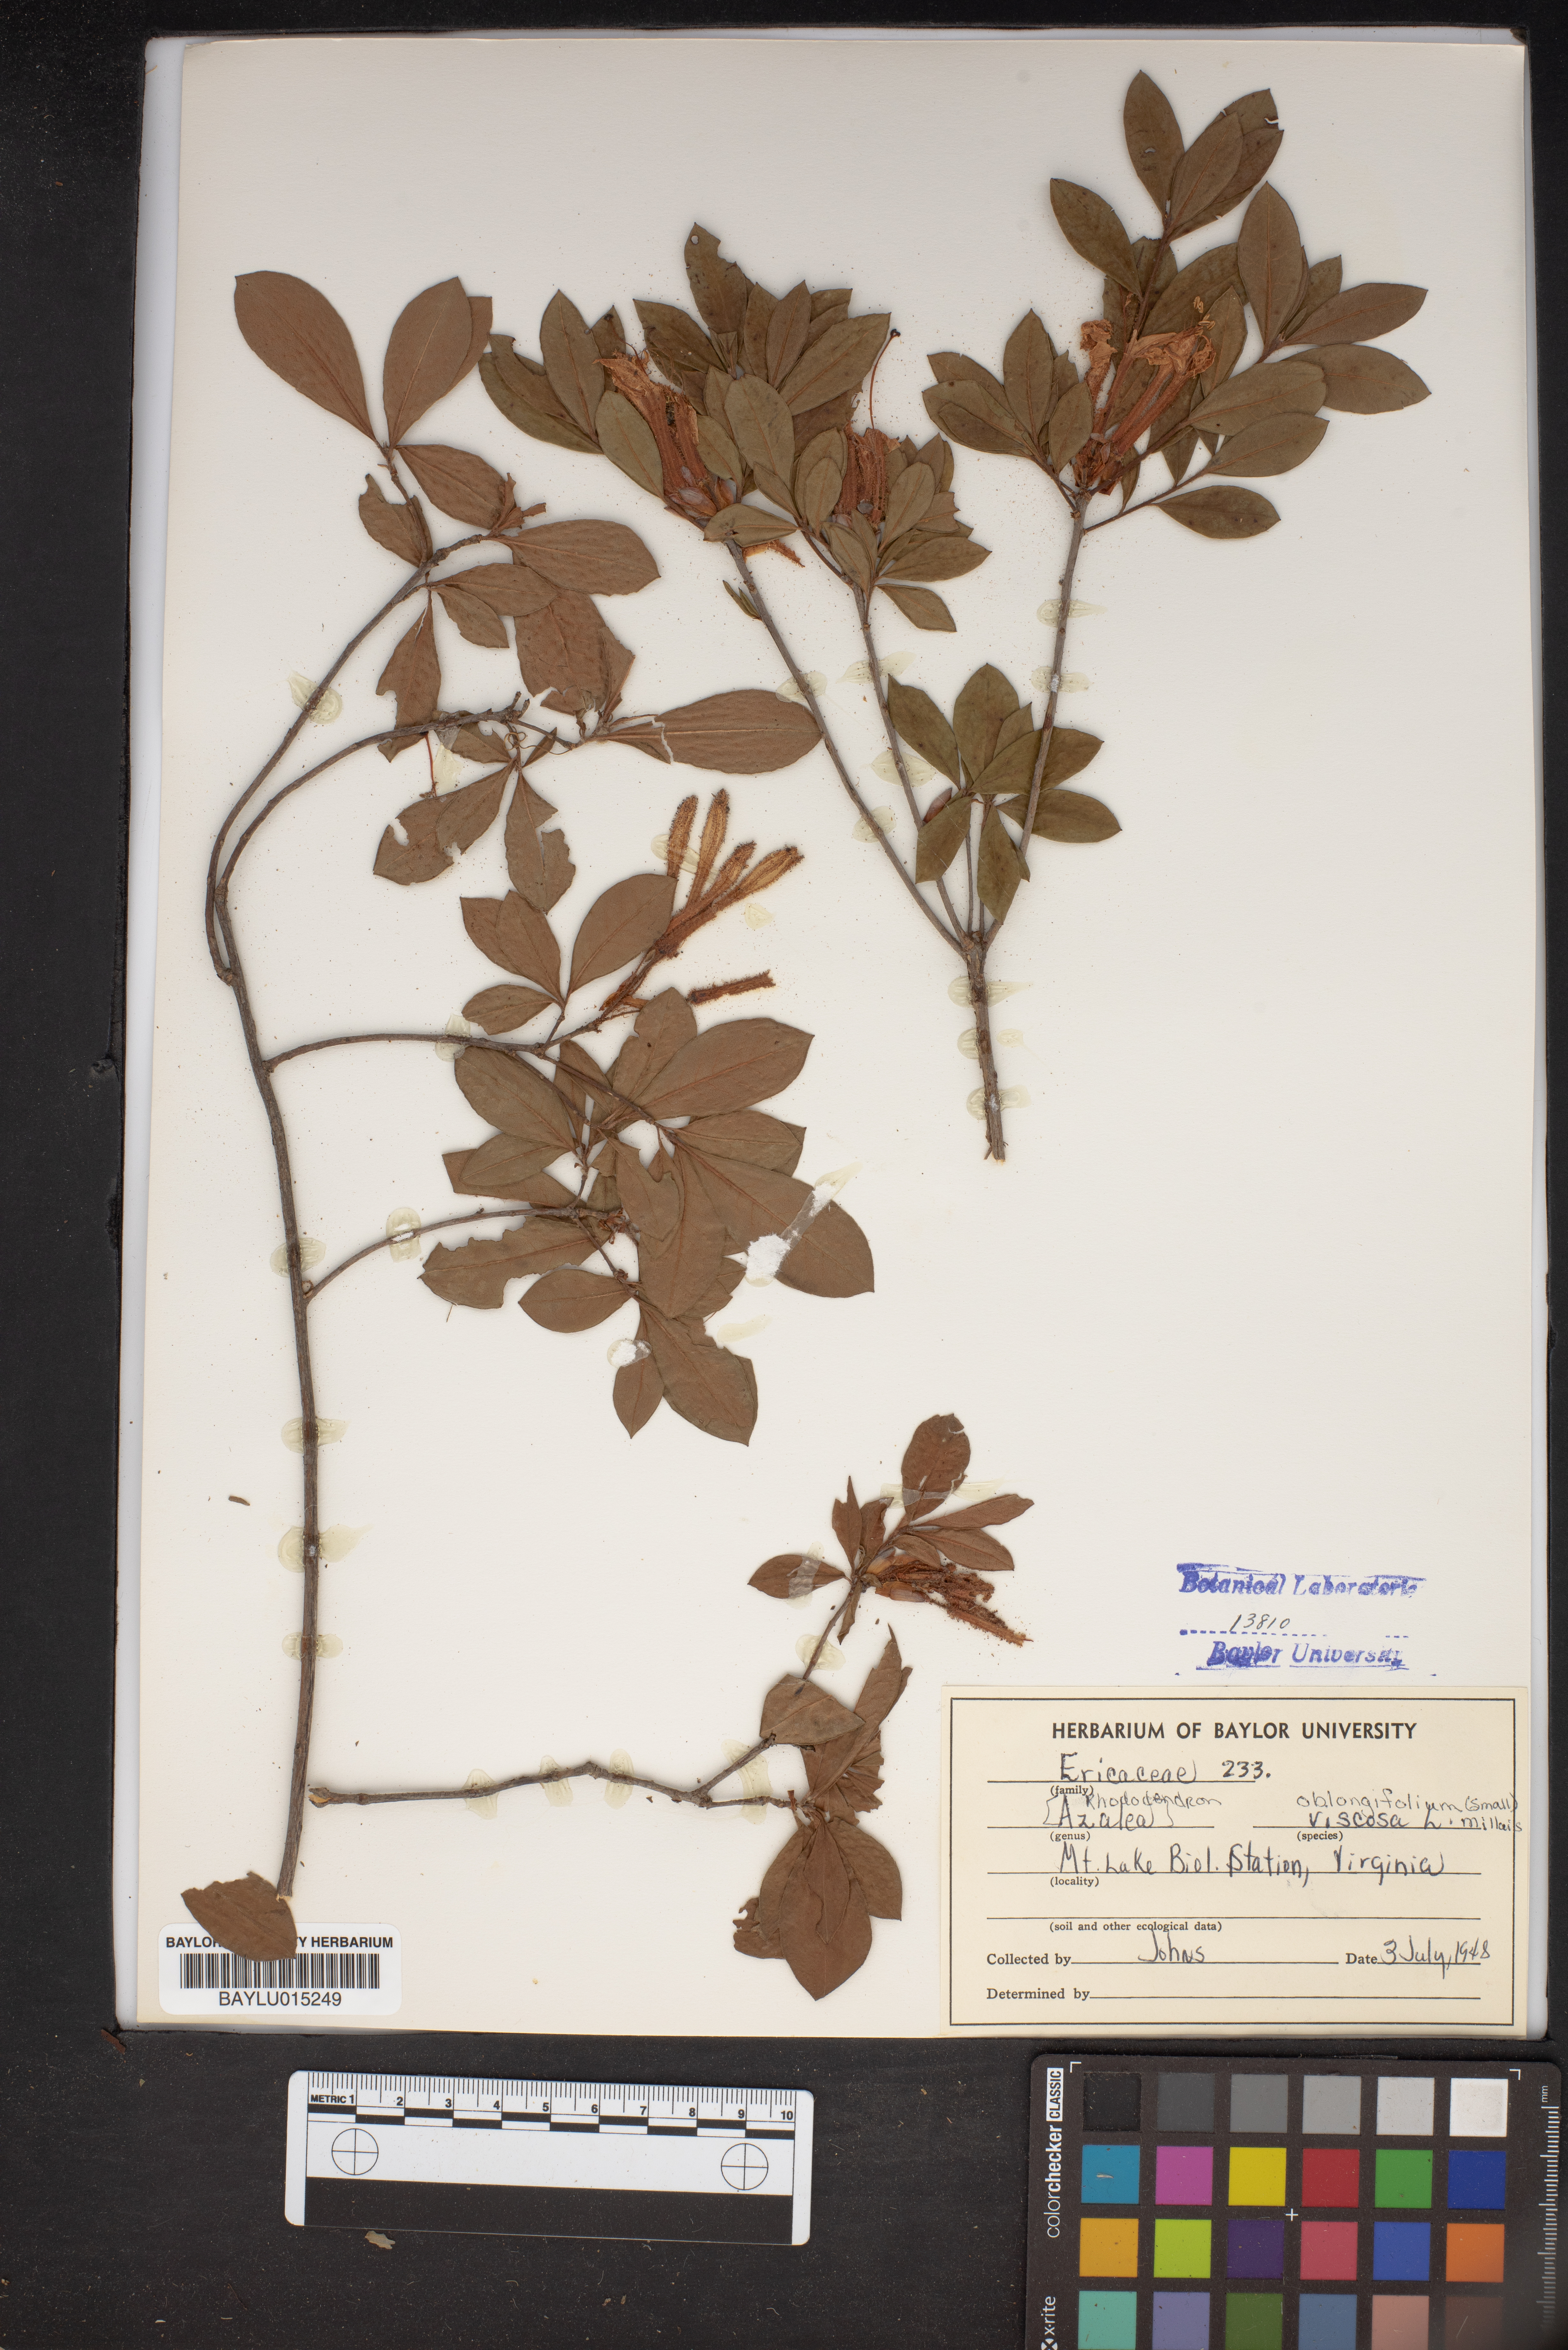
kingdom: Plantae
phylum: Tracheophyta
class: Magnoliopsida
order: Ericales
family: Ericaceae
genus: Rhododendron
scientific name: Rhododendron viscosum
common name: Clammy azalea
